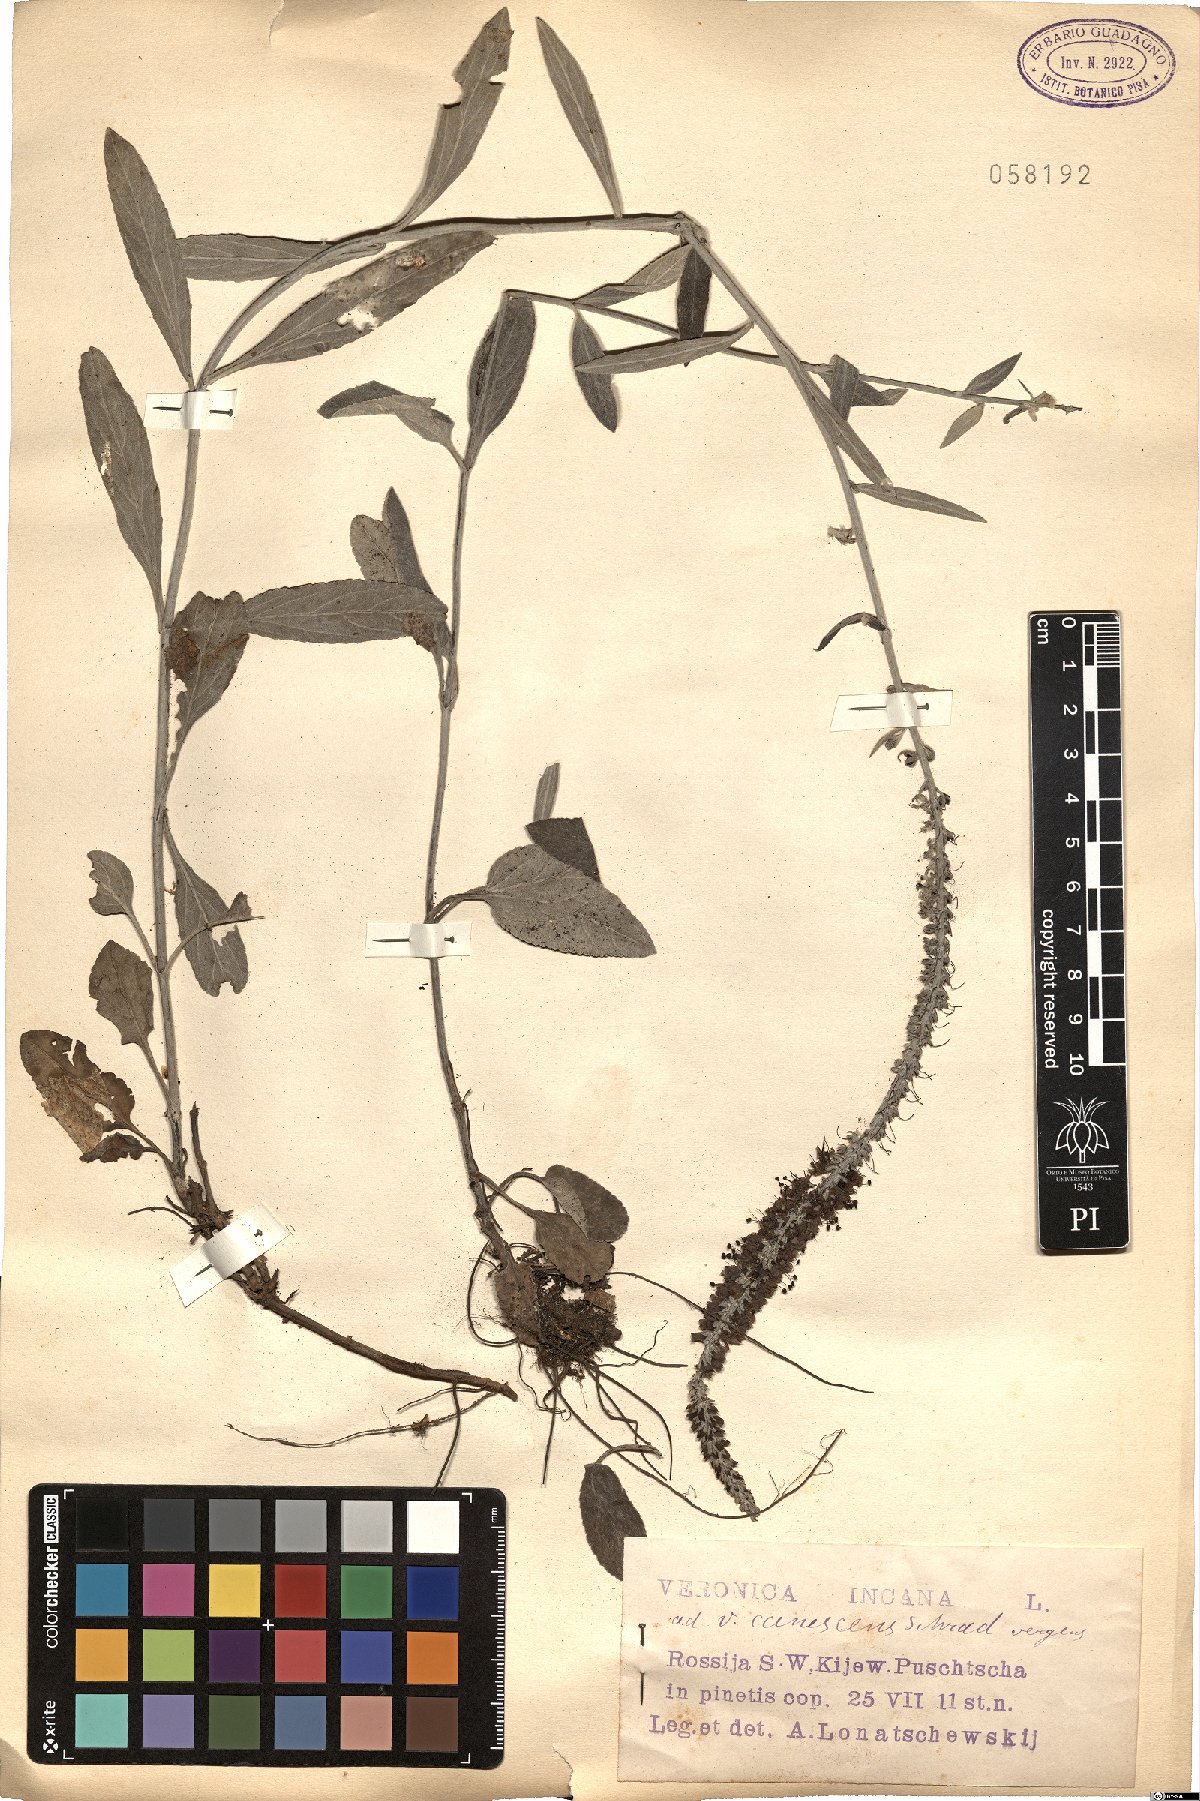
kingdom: Plantae
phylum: Tracheophyta
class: Magnoliopsida
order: Lamiales
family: Plantaginaceae
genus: Veronica
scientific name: Veronica incana
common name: Silver speedwell
